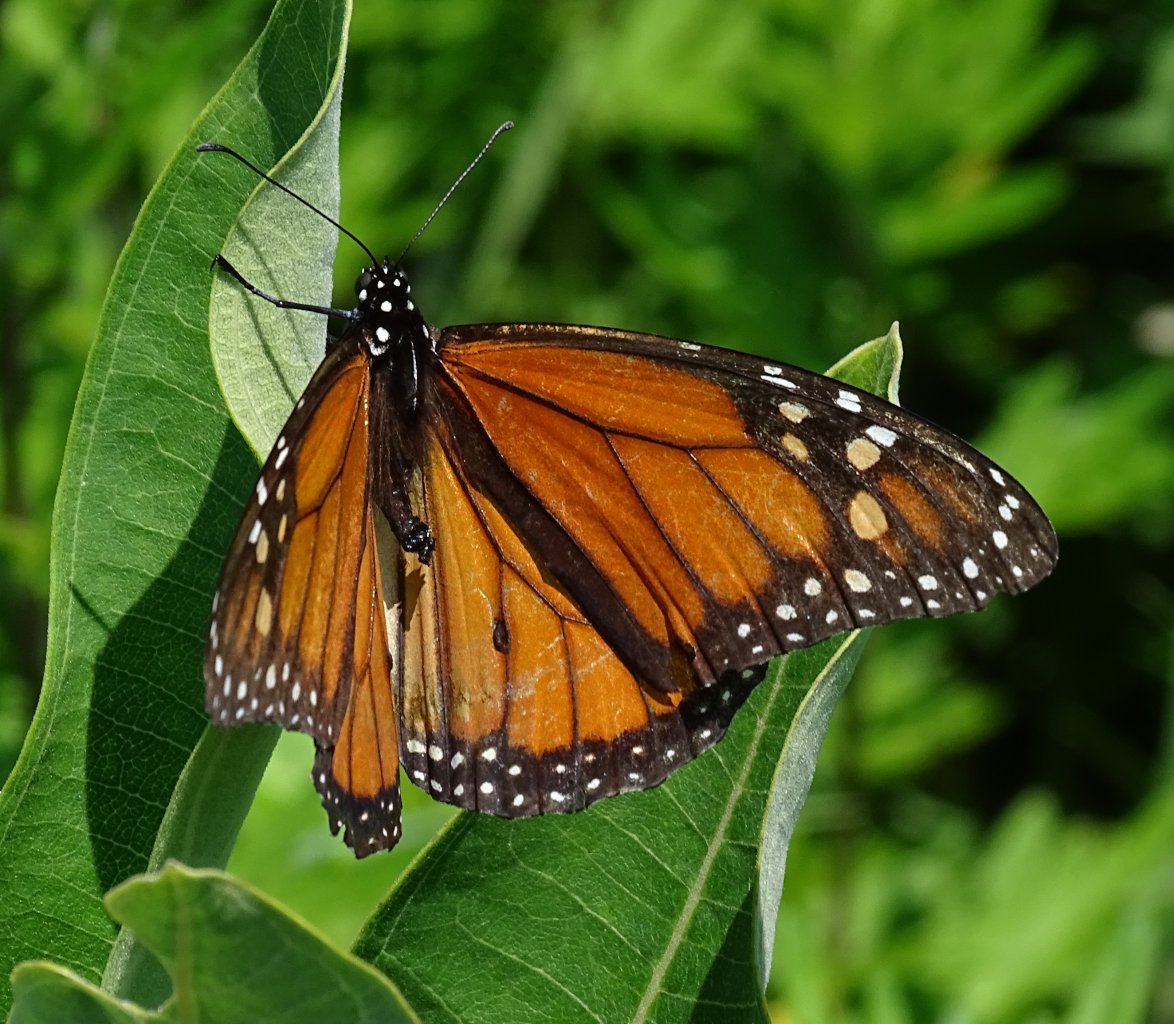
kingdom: Animalia
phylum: Arthropoda
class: Insecta
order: Lepidoptera
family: Nymphalidae
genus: Danaus
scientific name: Danaus plexippus
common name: Monarch
